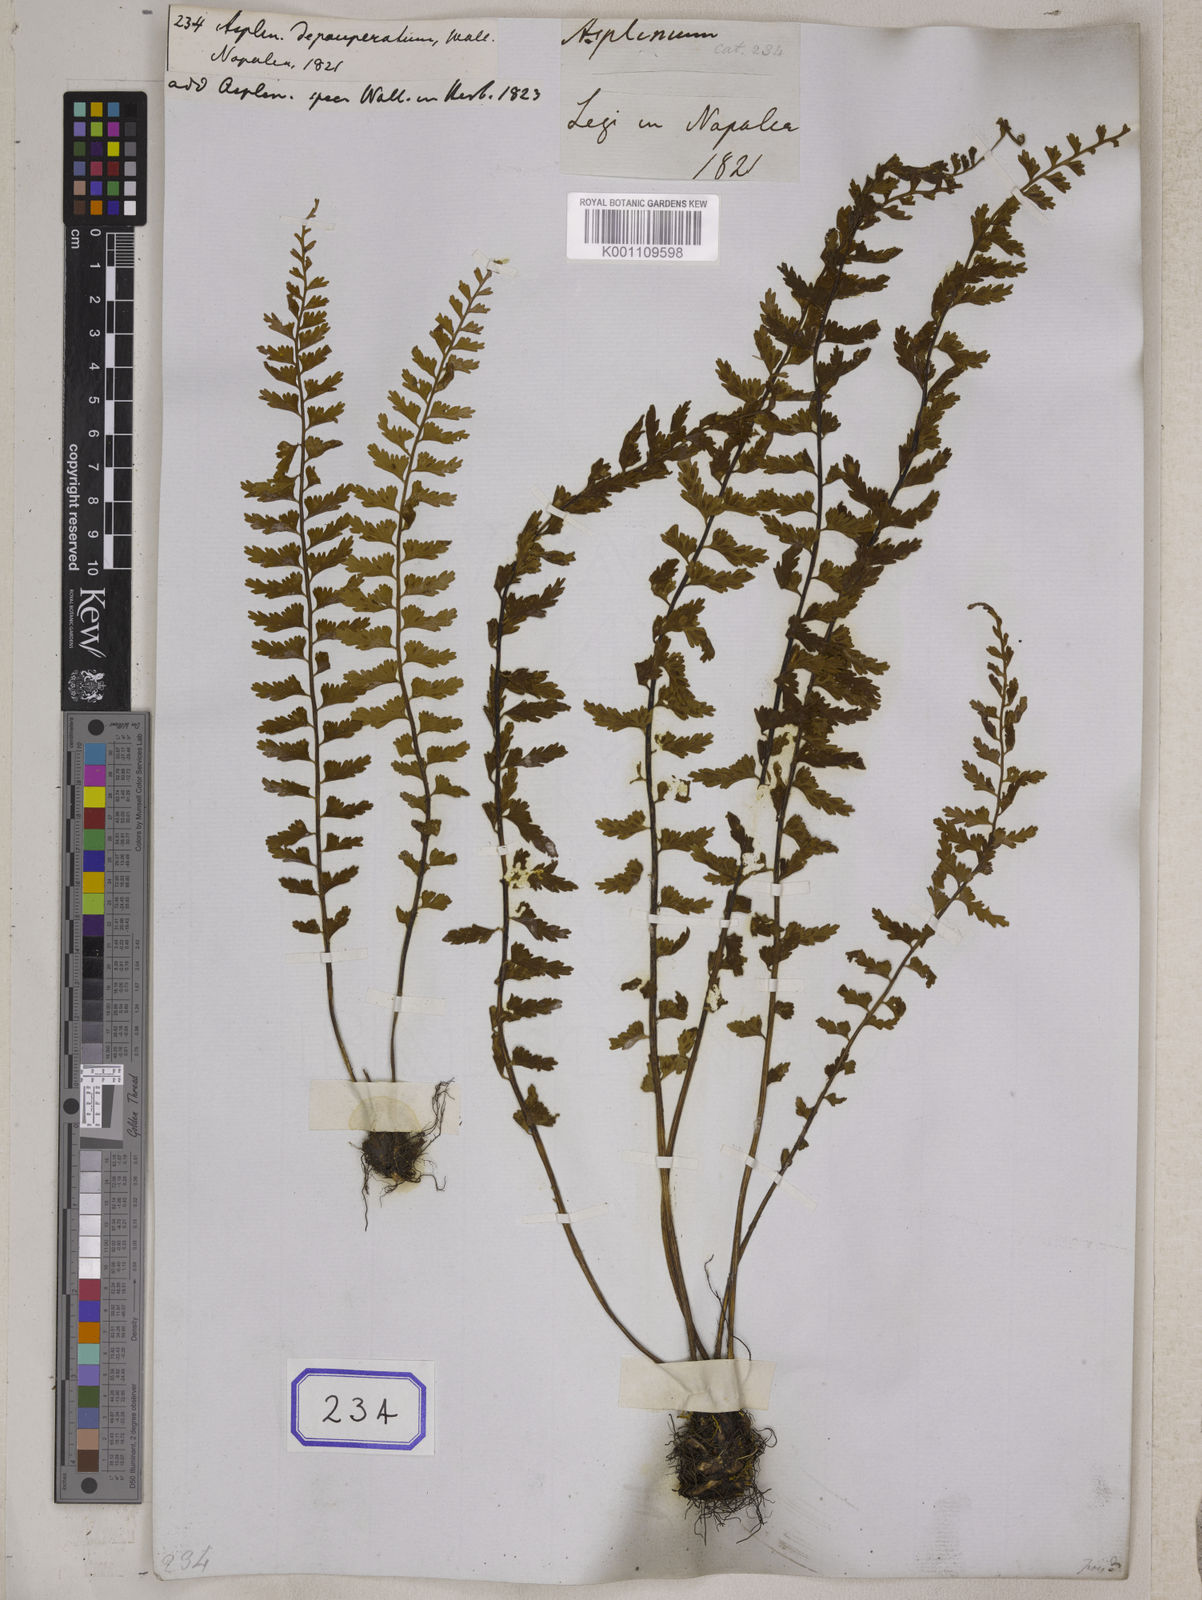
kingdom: Plantae
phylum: Tracheophyta
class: Polypodiopsida
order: Polypodiales
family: Aspleniaceae
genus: Asplenium
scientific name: Asplenium laciniatum
